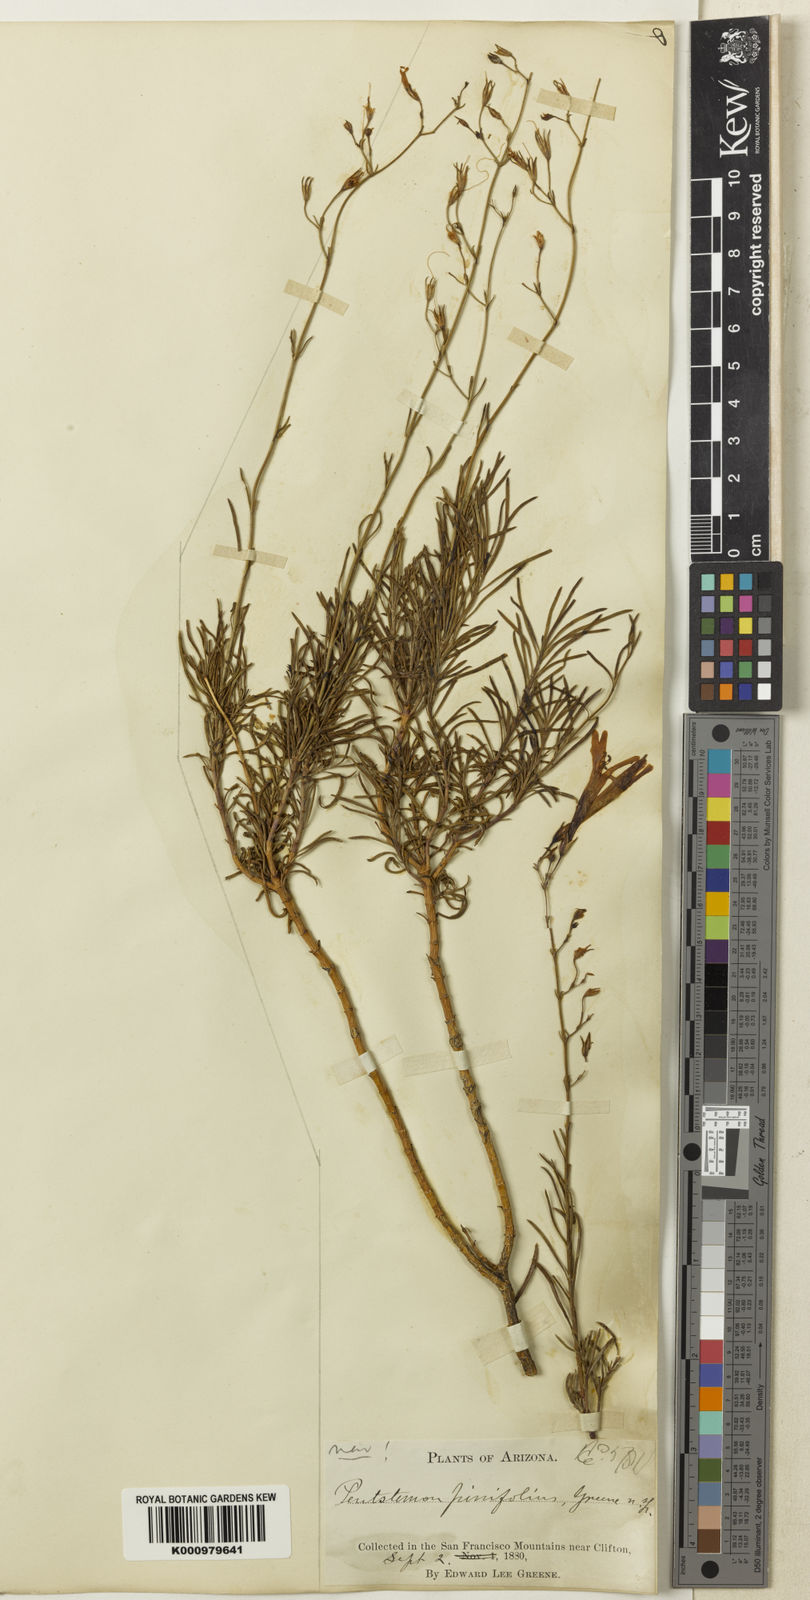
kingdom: Plantae
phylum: Tracheophyta
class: Magnoliopsida
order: Lamiales
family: Plantaginaceae
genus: Penstemon
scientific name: Penstemon pinifolius
